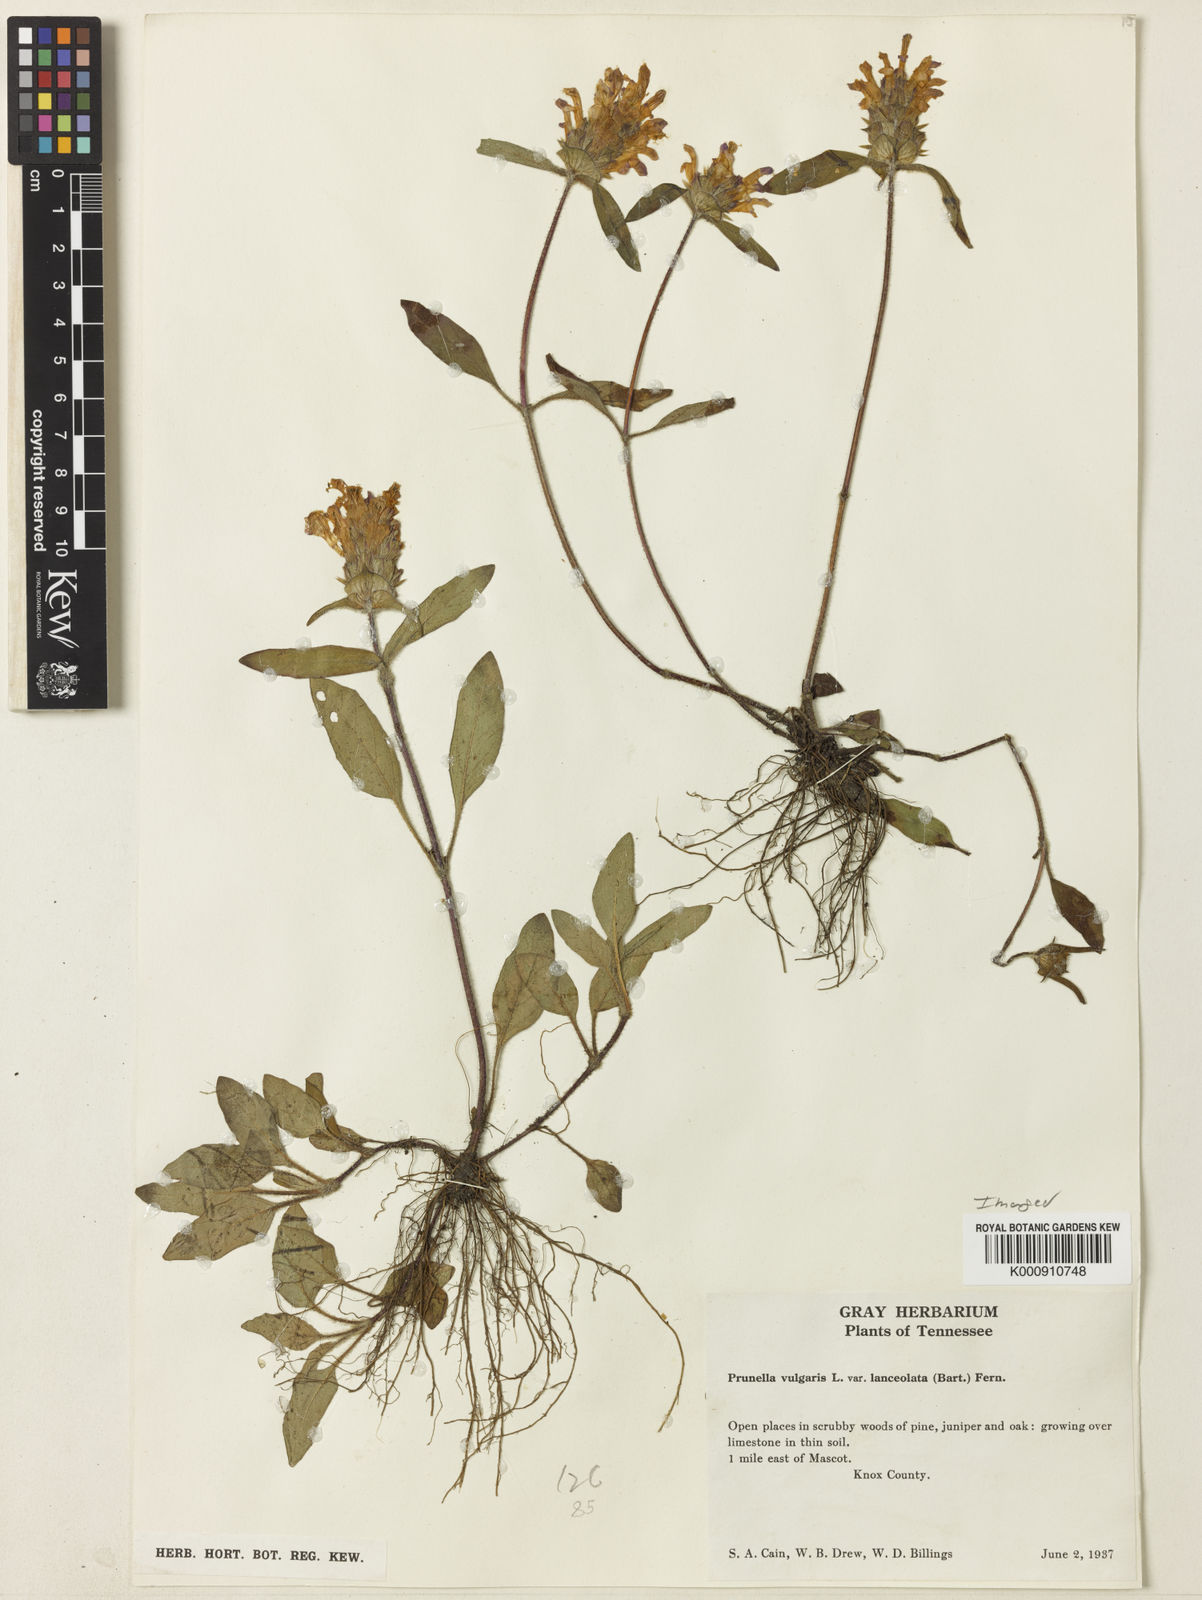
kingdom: Plantae
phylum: Tracheophyta
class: Magnoliopsida
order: Lamiales
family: Lamiaceae
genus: Prunella
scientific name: Prunella vulgaris
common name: Heal-all
